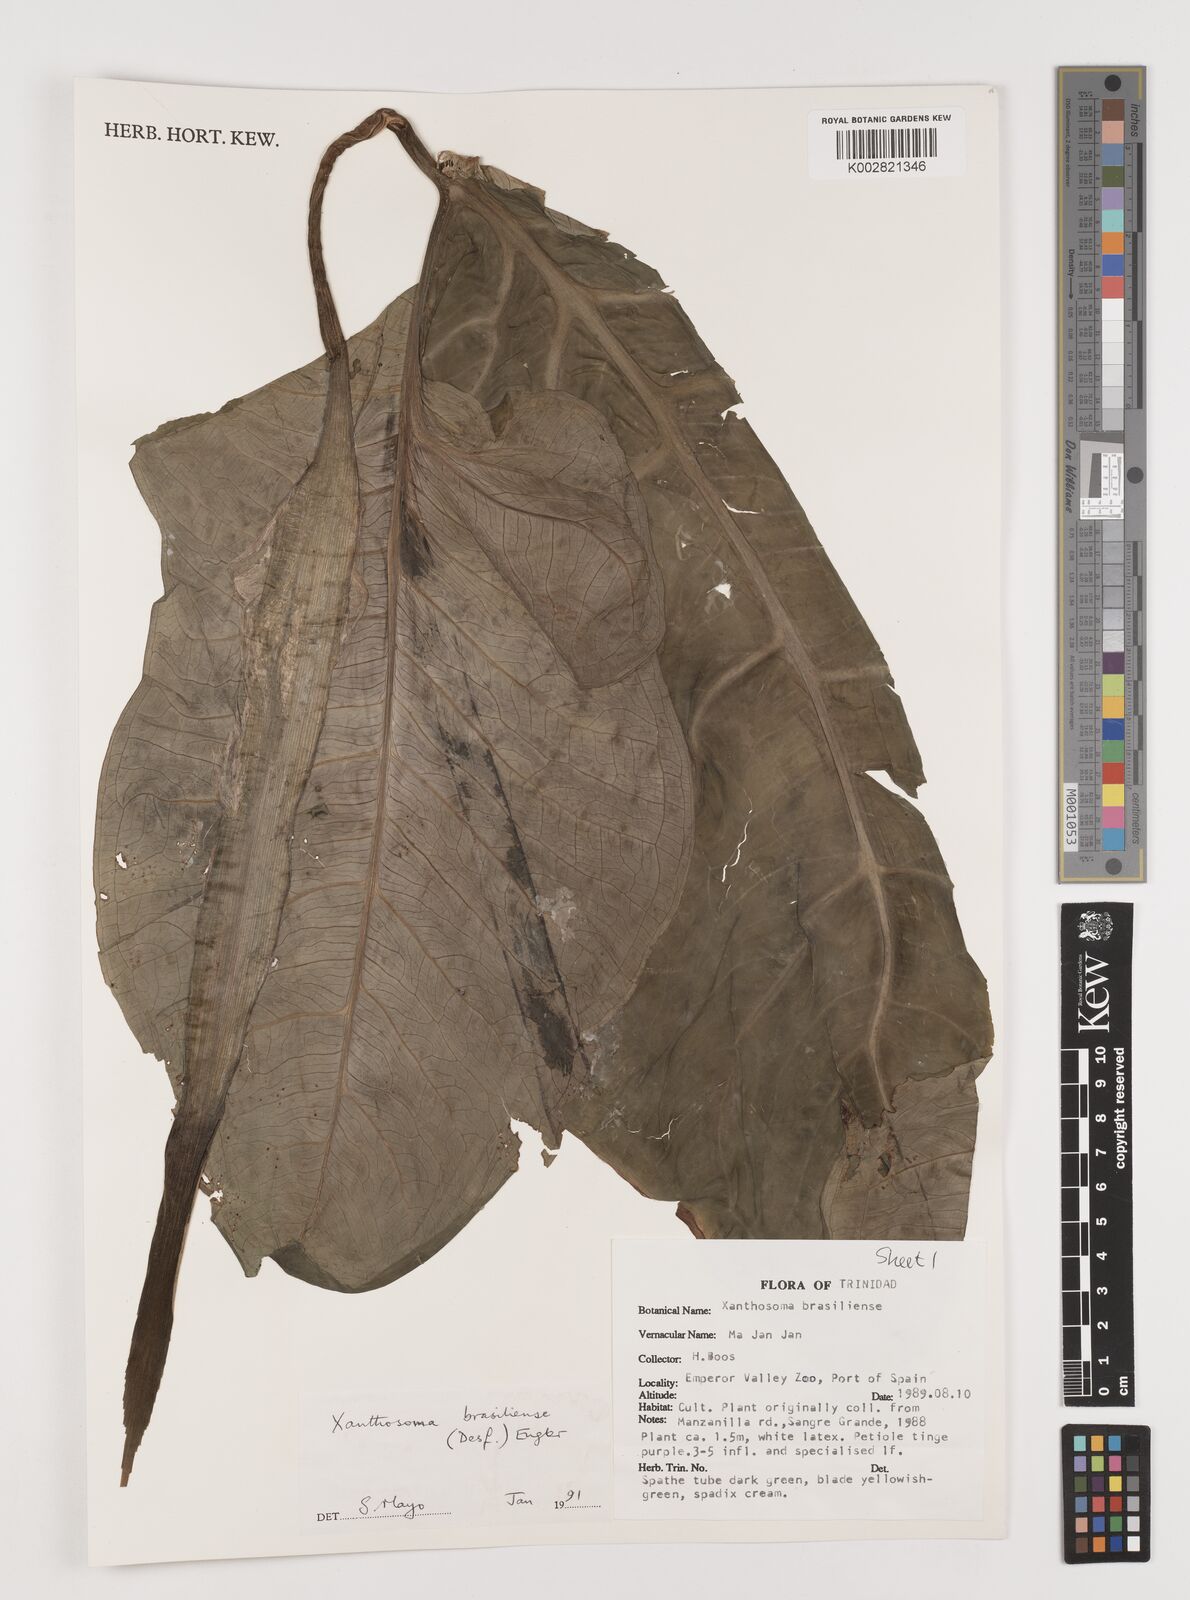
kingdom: Plantae
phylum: Tracheophyta
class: Liliopsida
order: Alismatales
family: Araceae
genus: Xanthosoma
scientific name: Xanthosoma brasiliense
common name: Tahitian-spinach
